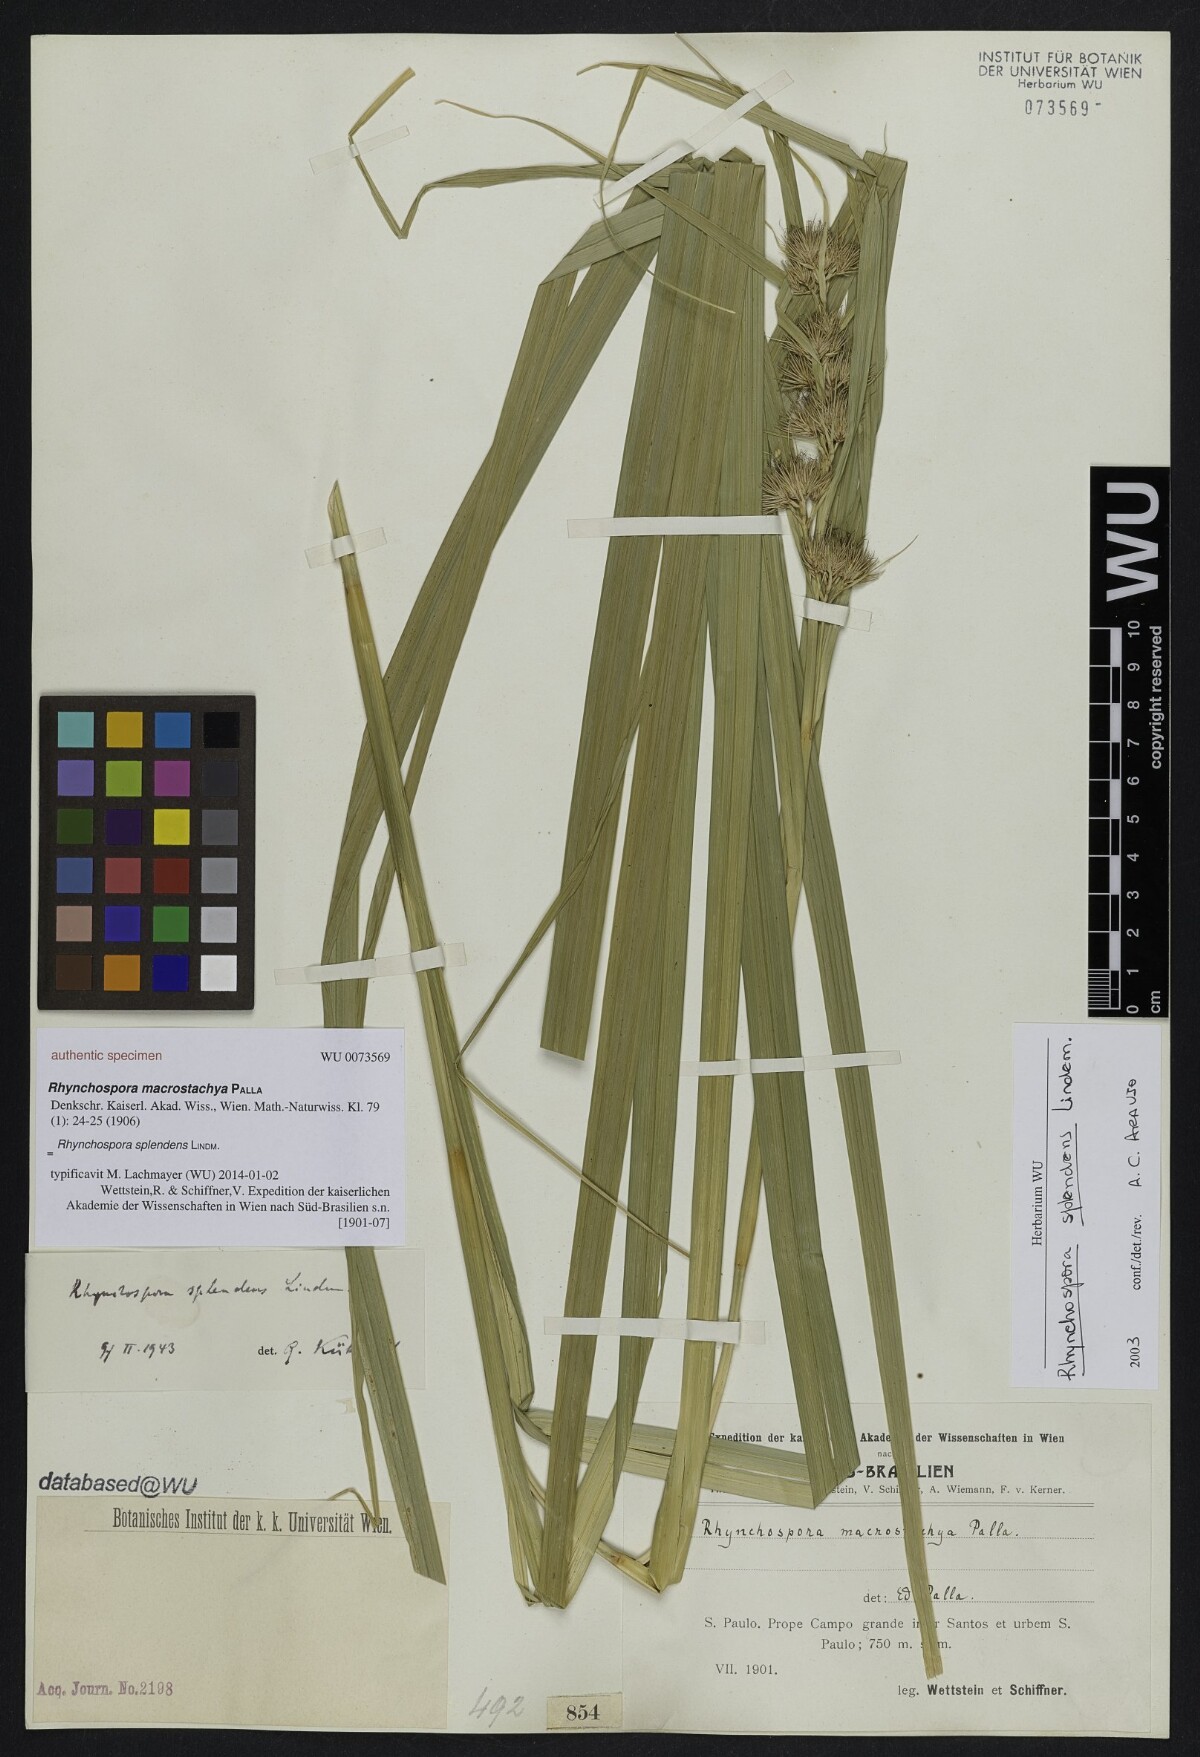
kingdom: Plantae
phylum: Tracheophyta
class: Liliopsida
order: Poales
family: Cyperaceae
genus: Rhynchospora
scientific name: Rhynchospora splendens
